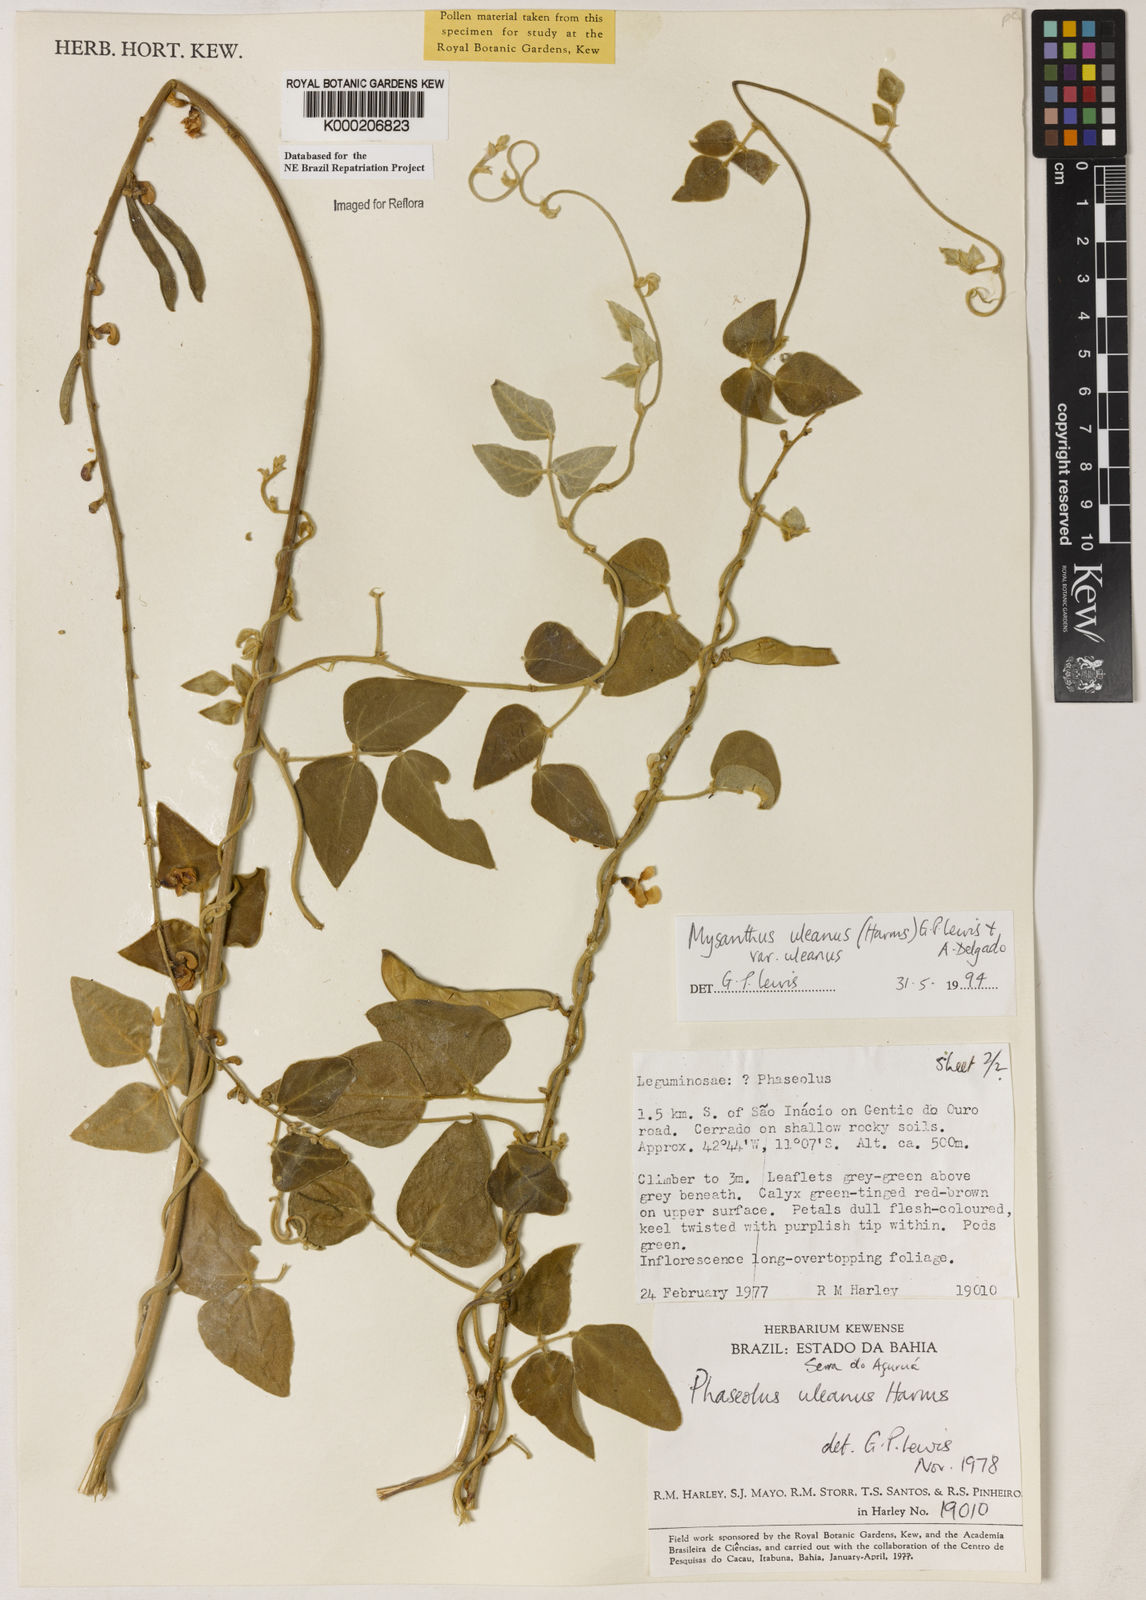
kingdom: Plantae
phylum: Tracheophyta
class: Magnoliopsida
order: Fabales
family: Fabaceae
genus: Mysanthus
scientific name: Mysanthus uleanus
